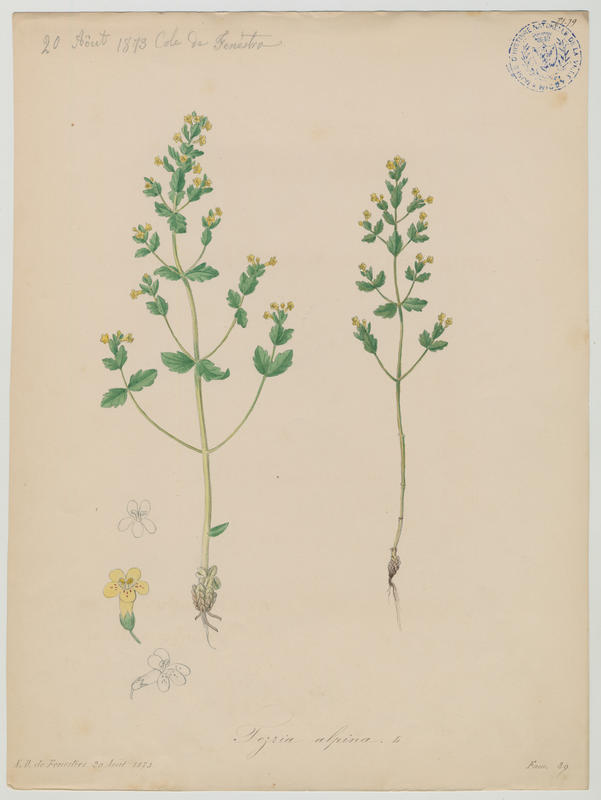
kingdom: Plantae
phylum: Tracheophyta
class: Magnoliopsida
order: Lamiales
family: Orobanchaceae
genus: Tozzia
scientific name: Tozzia alpina
